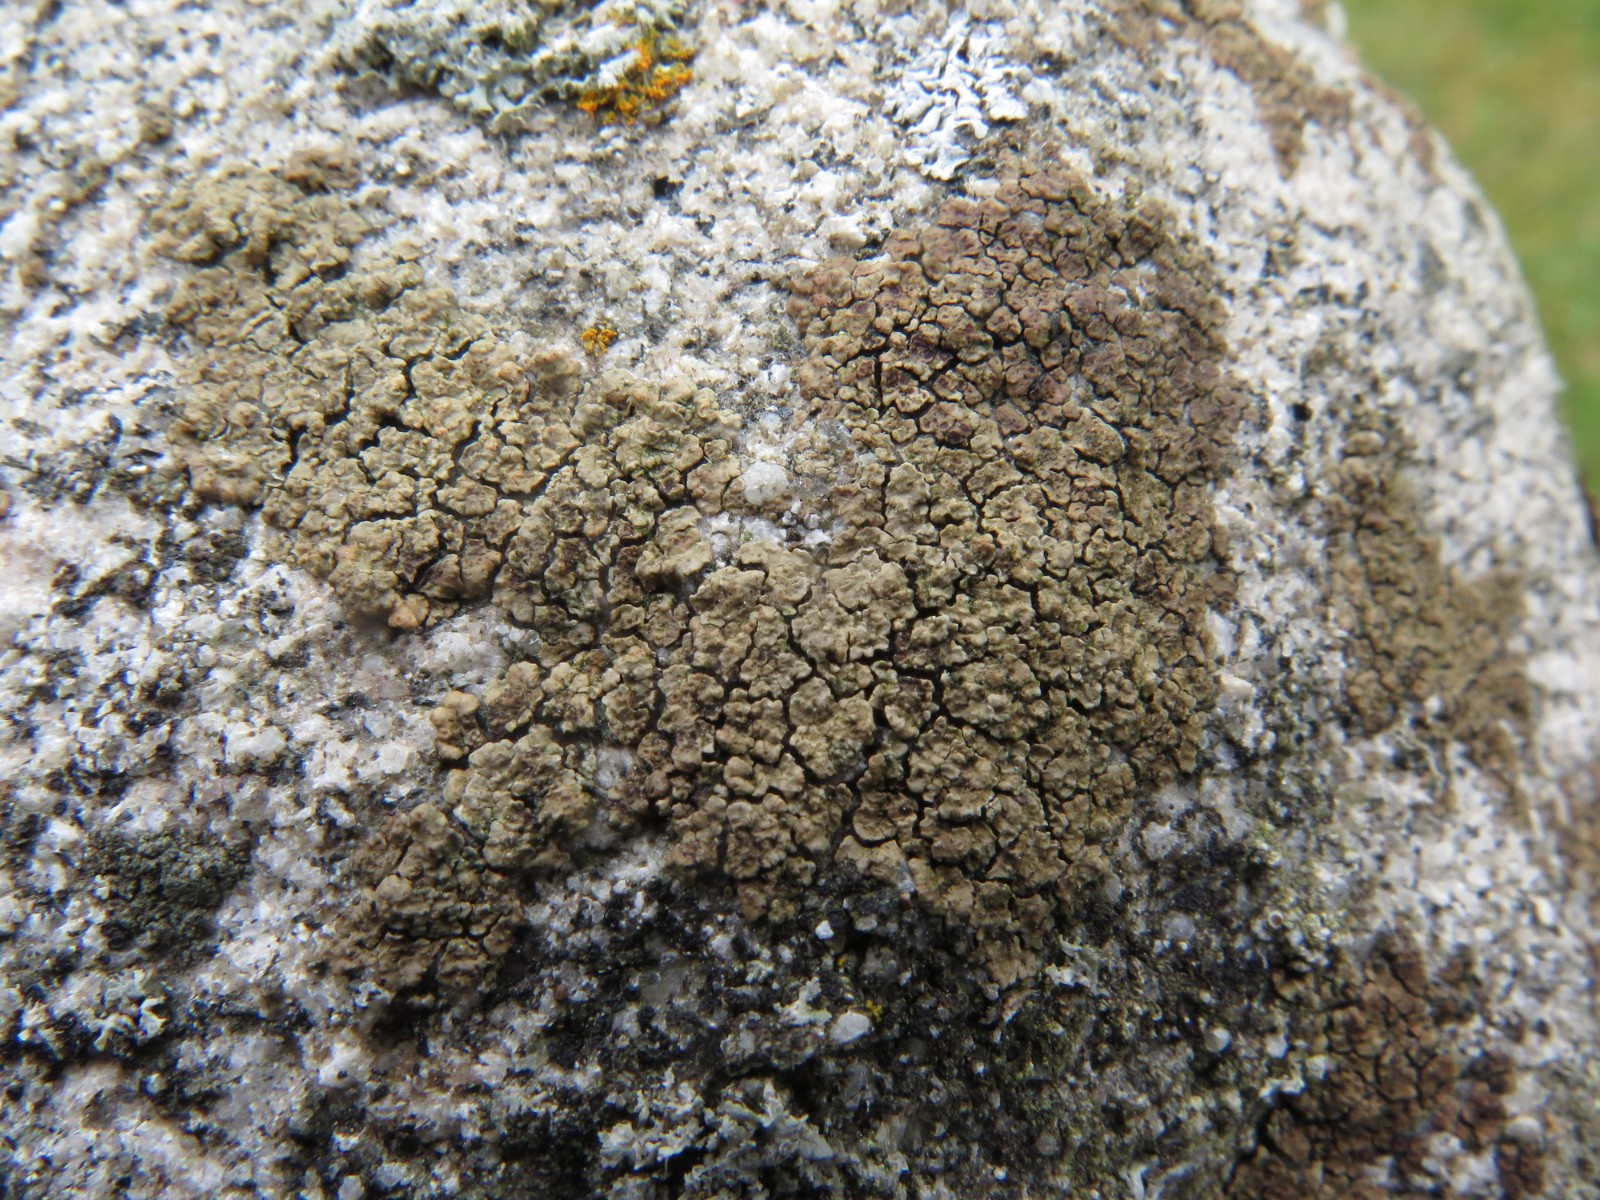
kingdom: Fungi
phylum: Ascomycota
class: Lecanoromycetes
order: Acarosporales
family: Acarosporaceae
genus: Acarospora
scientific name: Acarospora fuscata
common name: brun småsporelav
